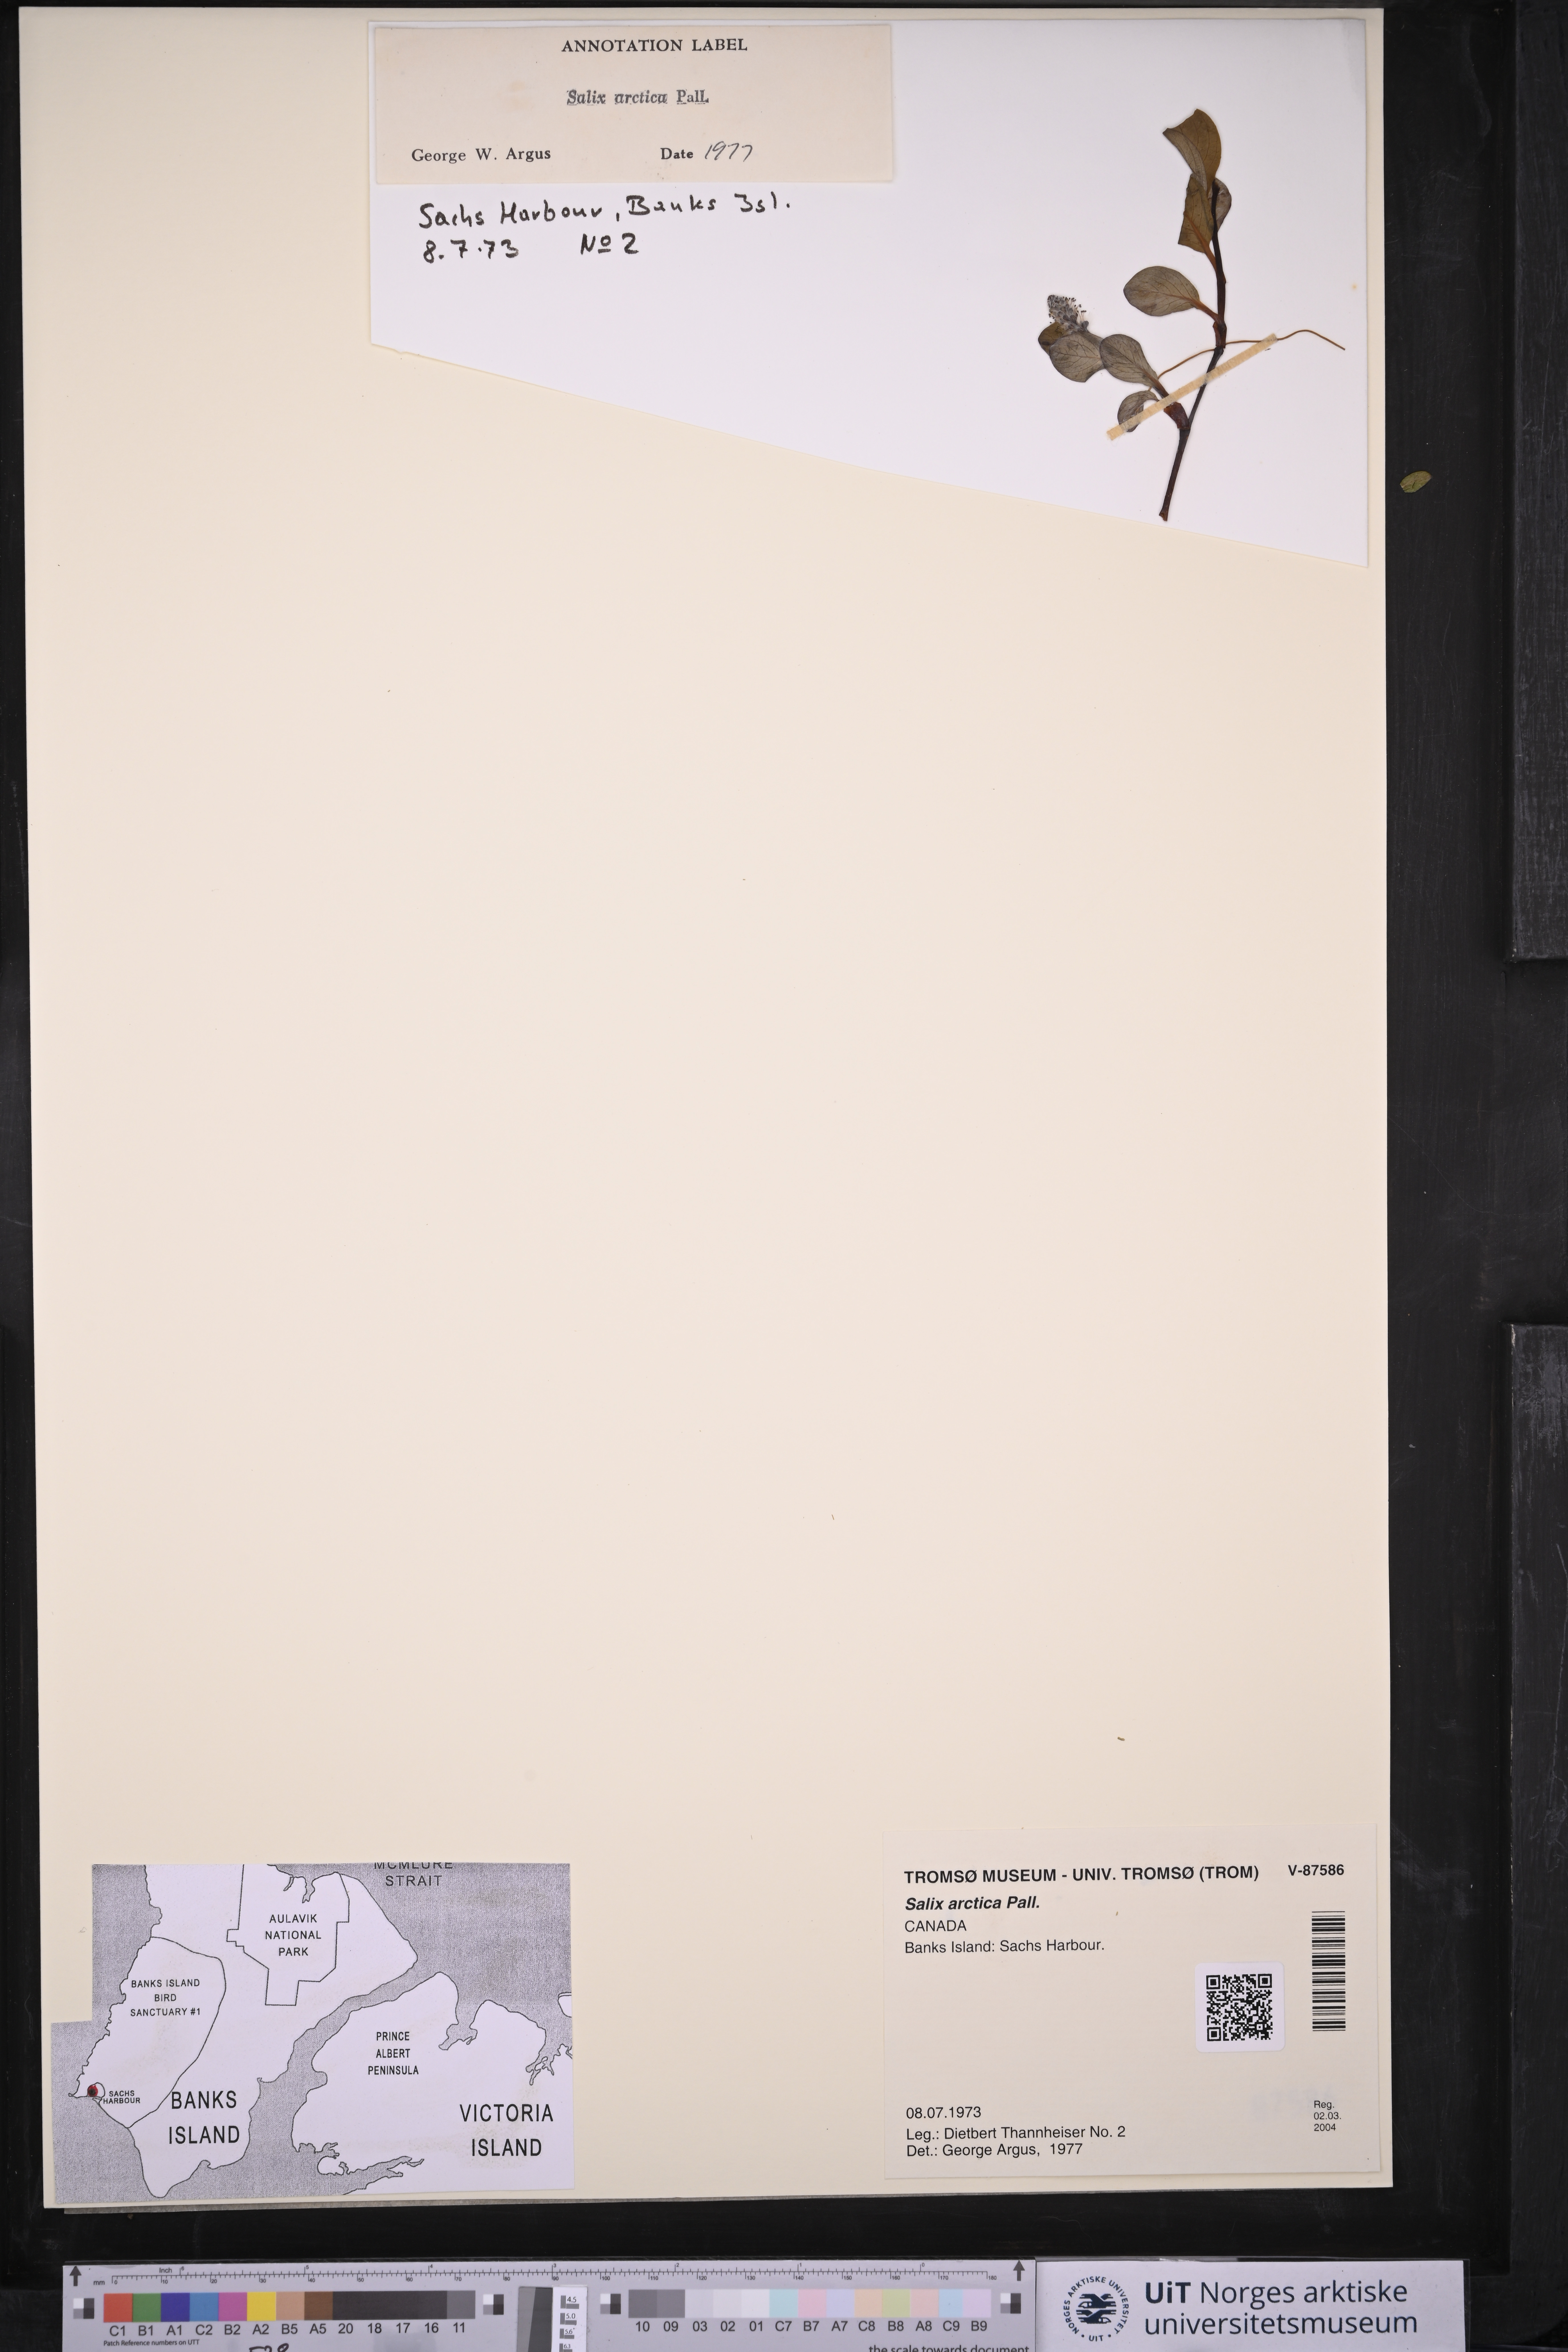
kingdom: Plantae
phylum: Tracheophyta
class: Magnoliopsida
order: Malpighiales
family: Salicaceae
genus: Salix
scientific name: Salix arctica
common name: Arctic willow
